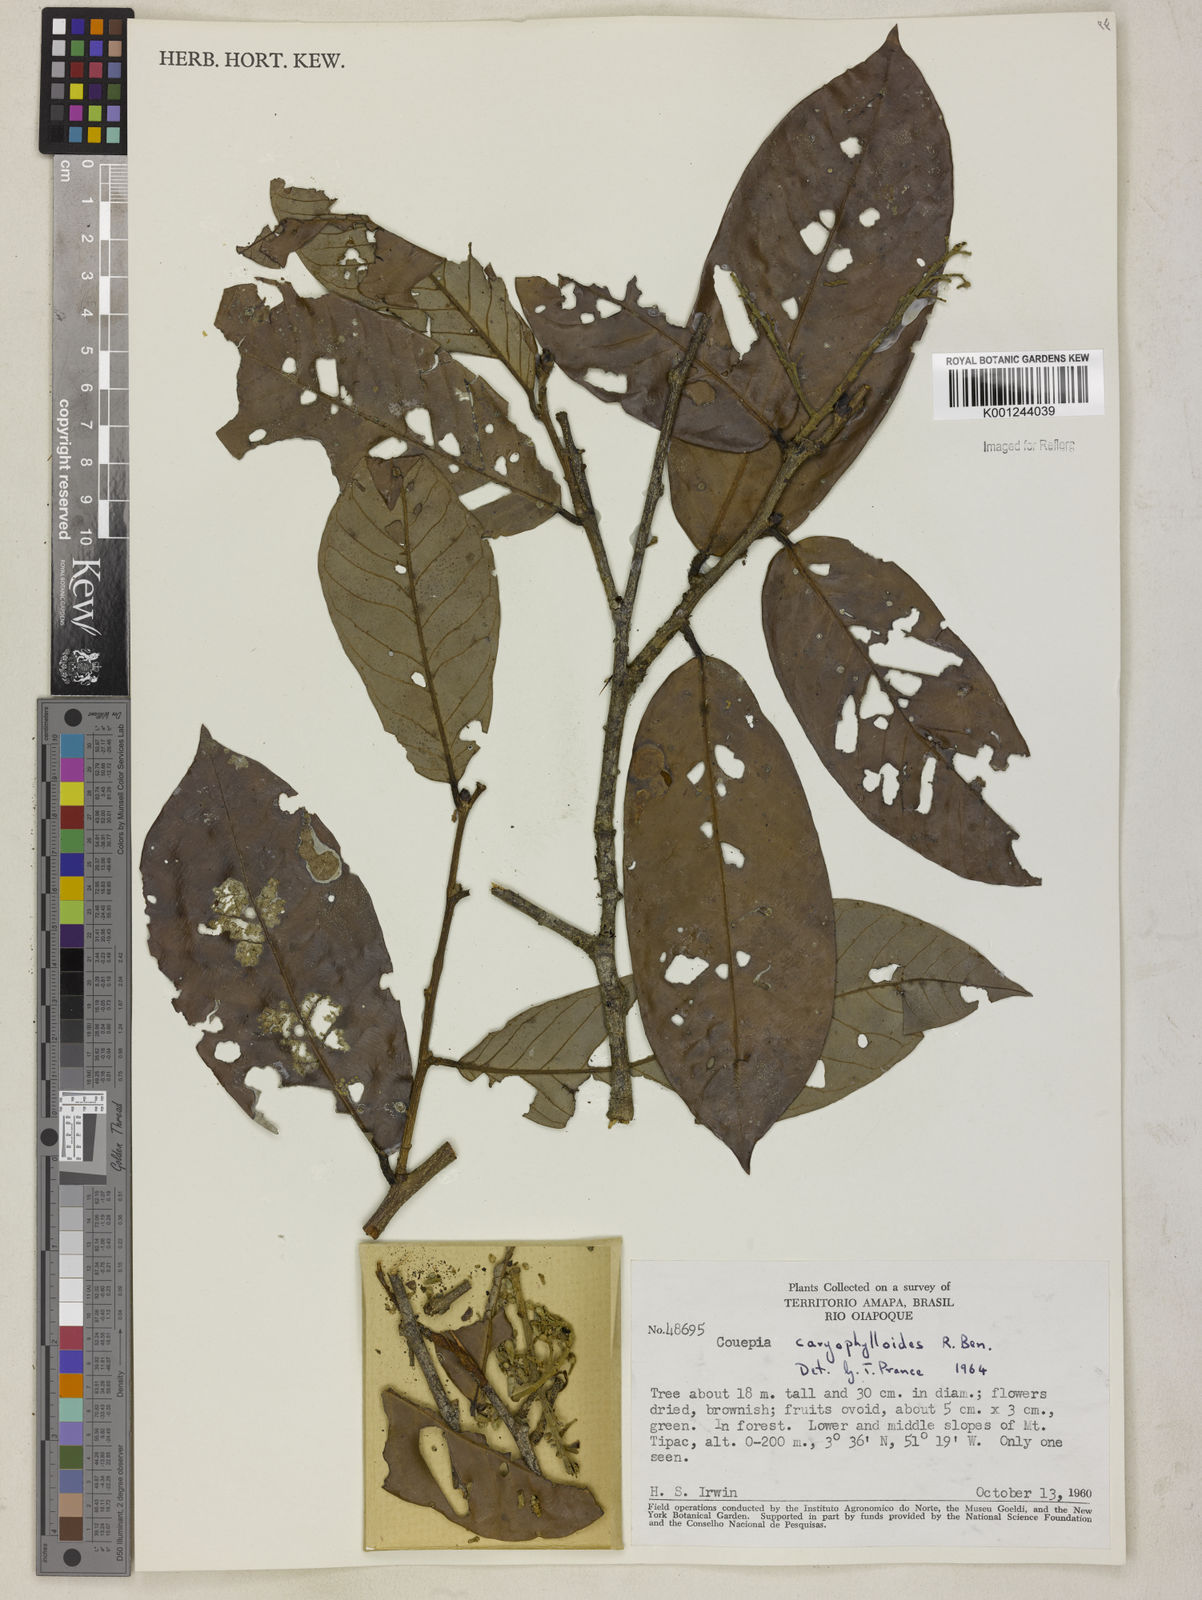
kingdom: Plantae
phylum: Tracheophyta
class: Magnoliopsida
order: Malpighiales
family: Chrysobalanaceae
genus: Couepia
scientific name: Couepia caryophylloides
